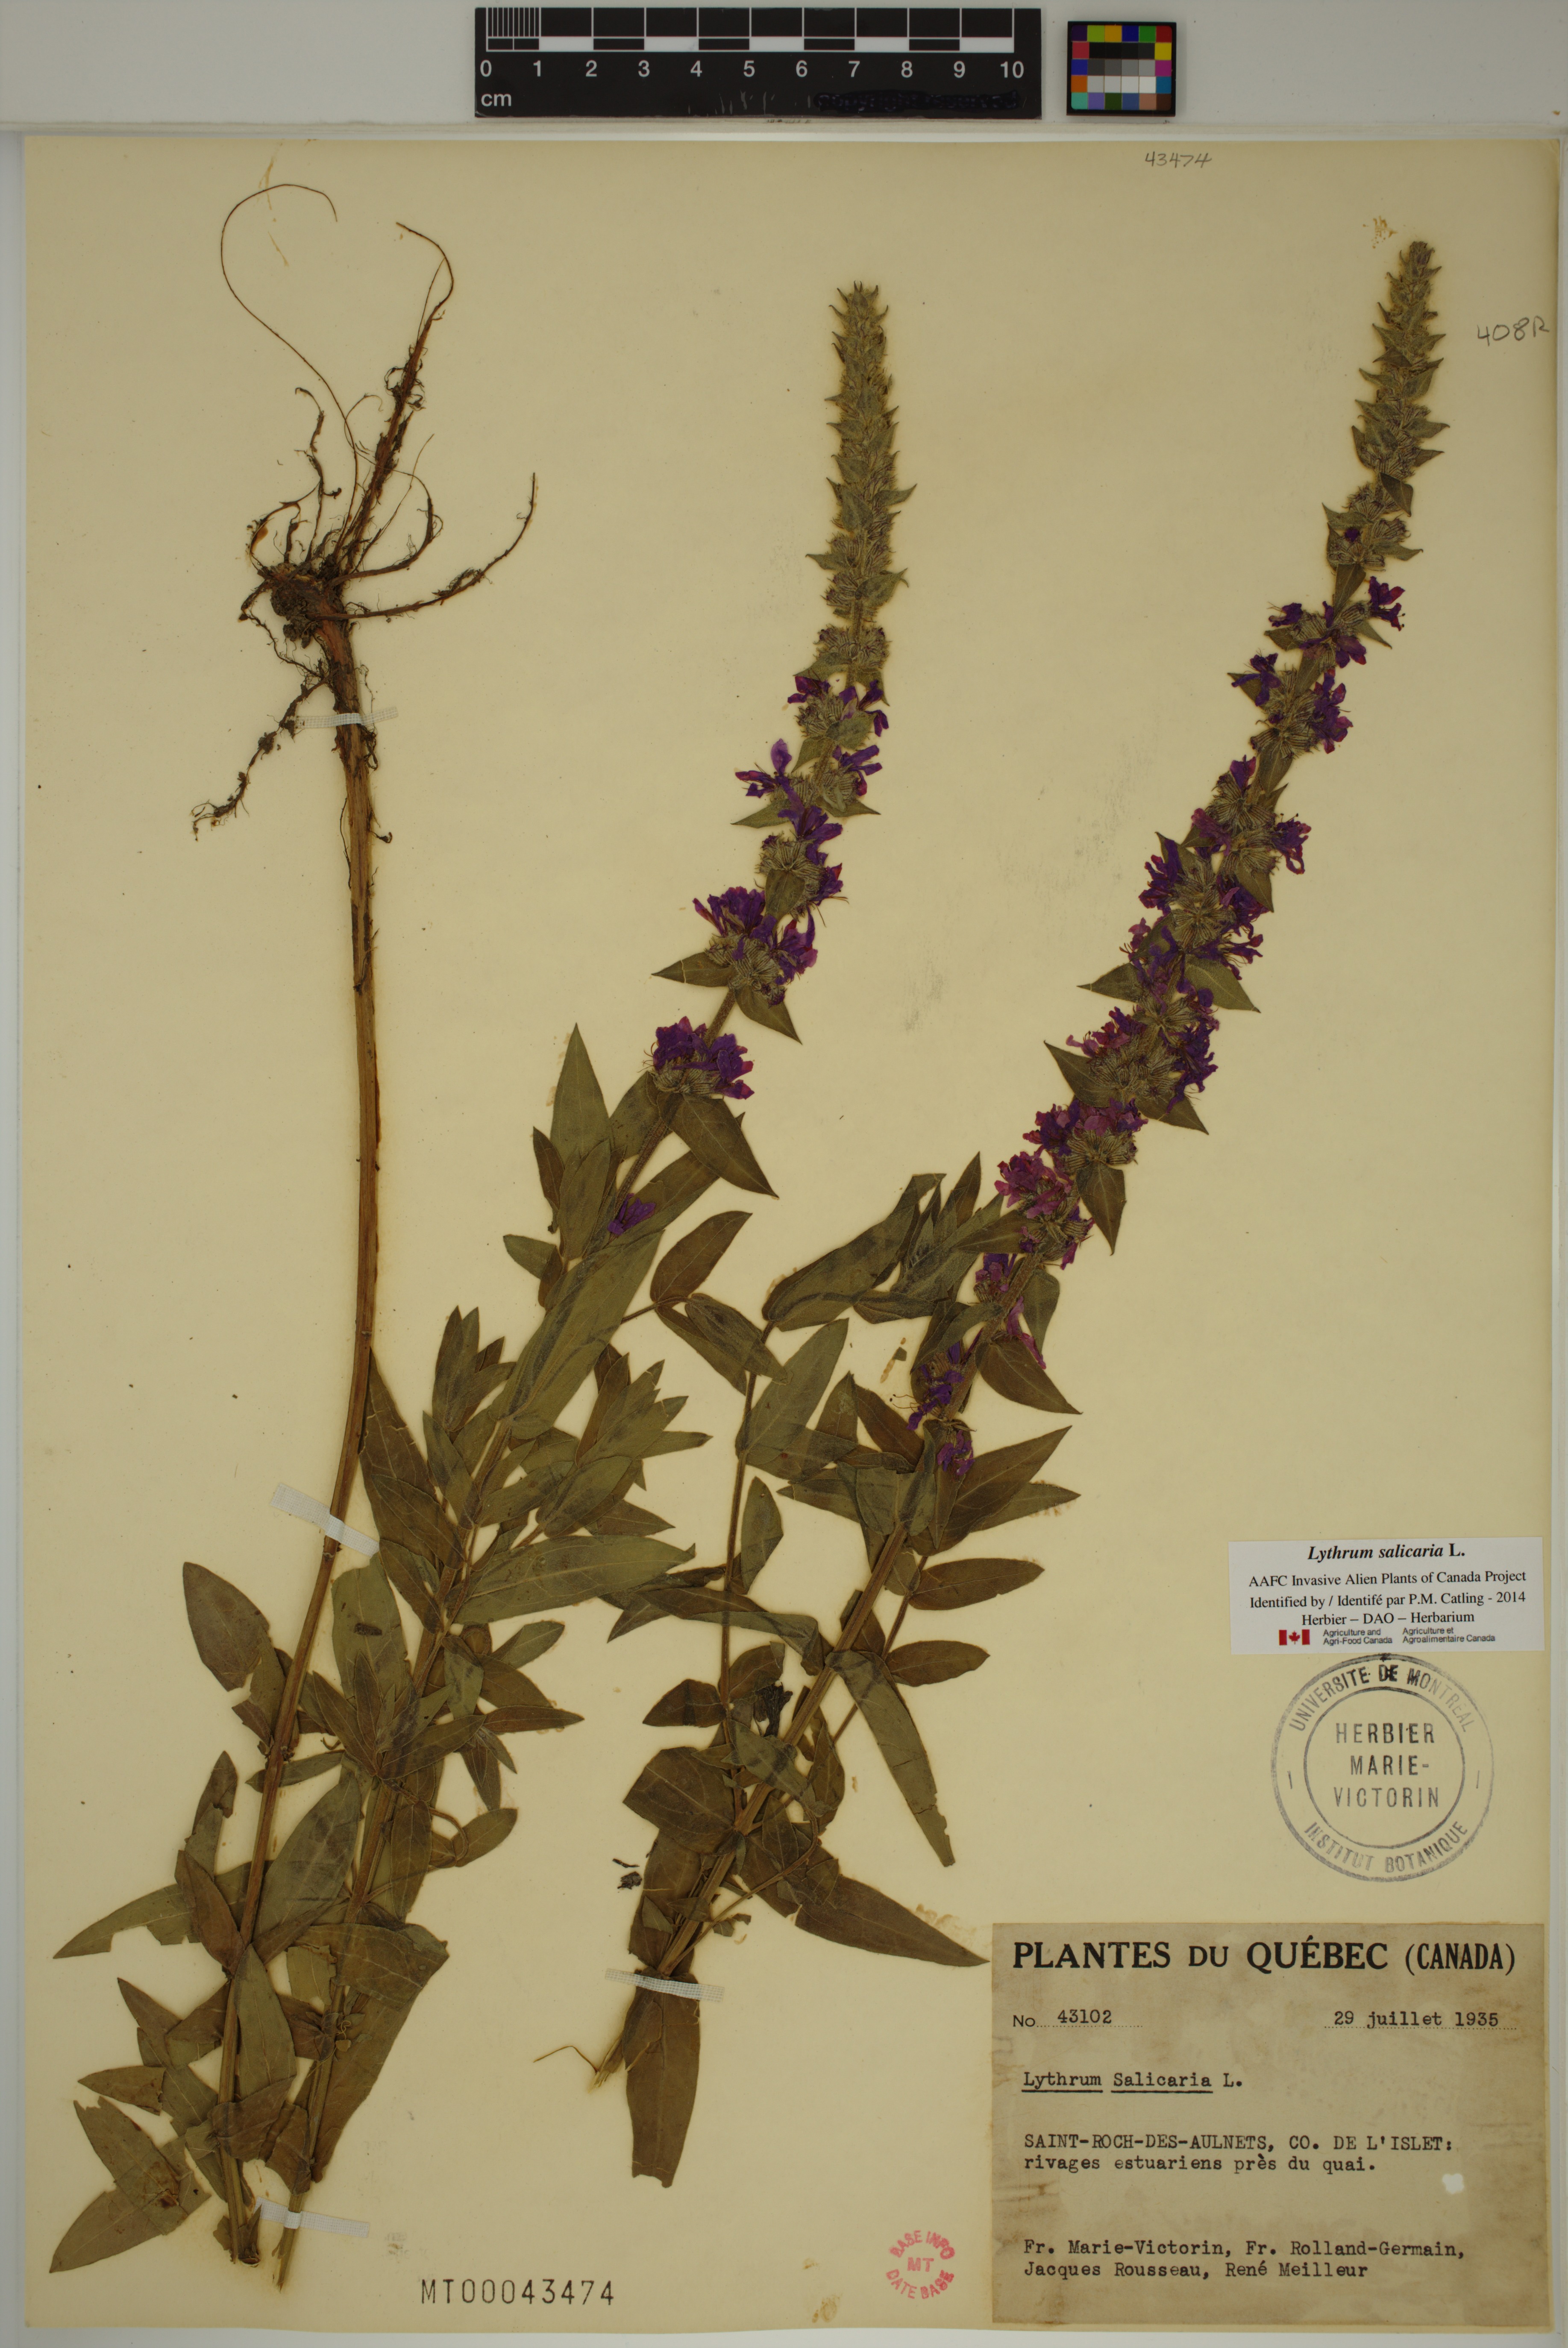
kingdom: Plantae
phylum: Tracheophyta
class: Magnoliopsida
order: Myrtales
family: Lythraceae
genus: Lythrum
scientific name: Lythrum salicaria
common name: Purple loosestrife
